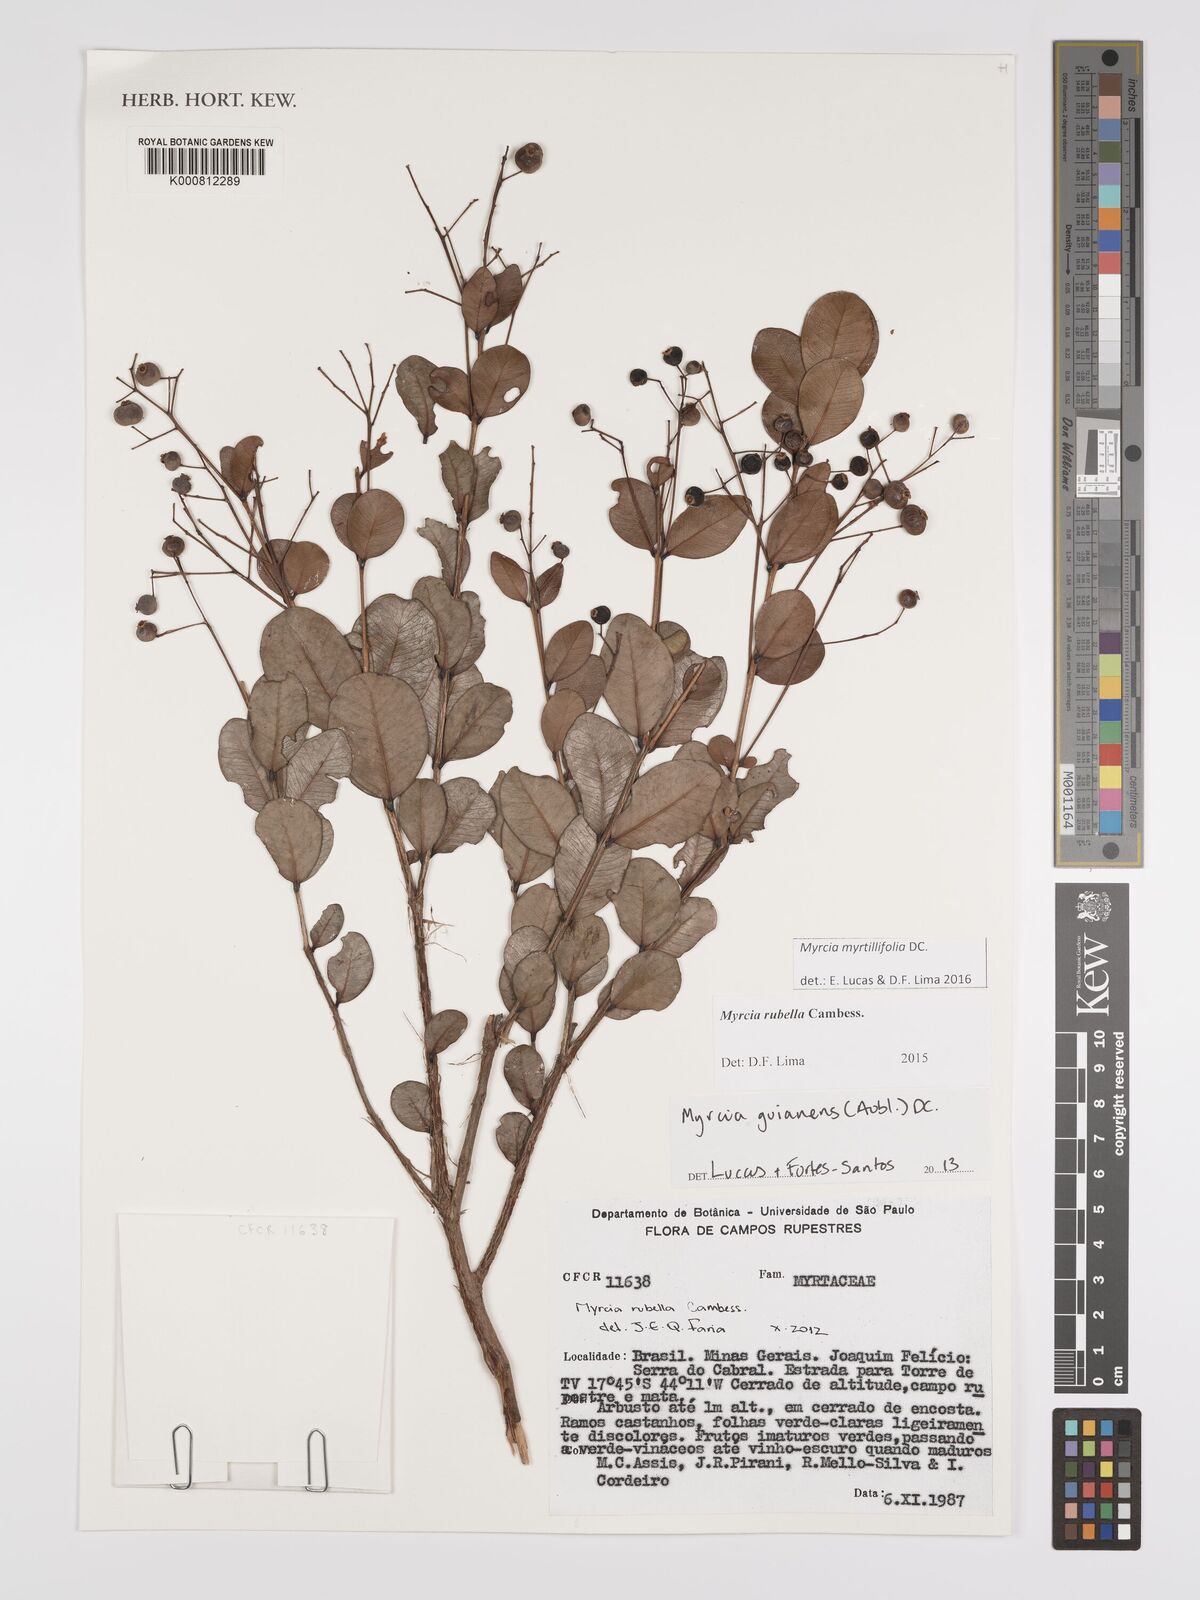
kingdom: Plantae
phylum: Tracheophyta
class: Magnoliopsida
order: Myrtales
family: Myrtaceae
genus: Myrcia
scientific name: Myrcia guianensis
